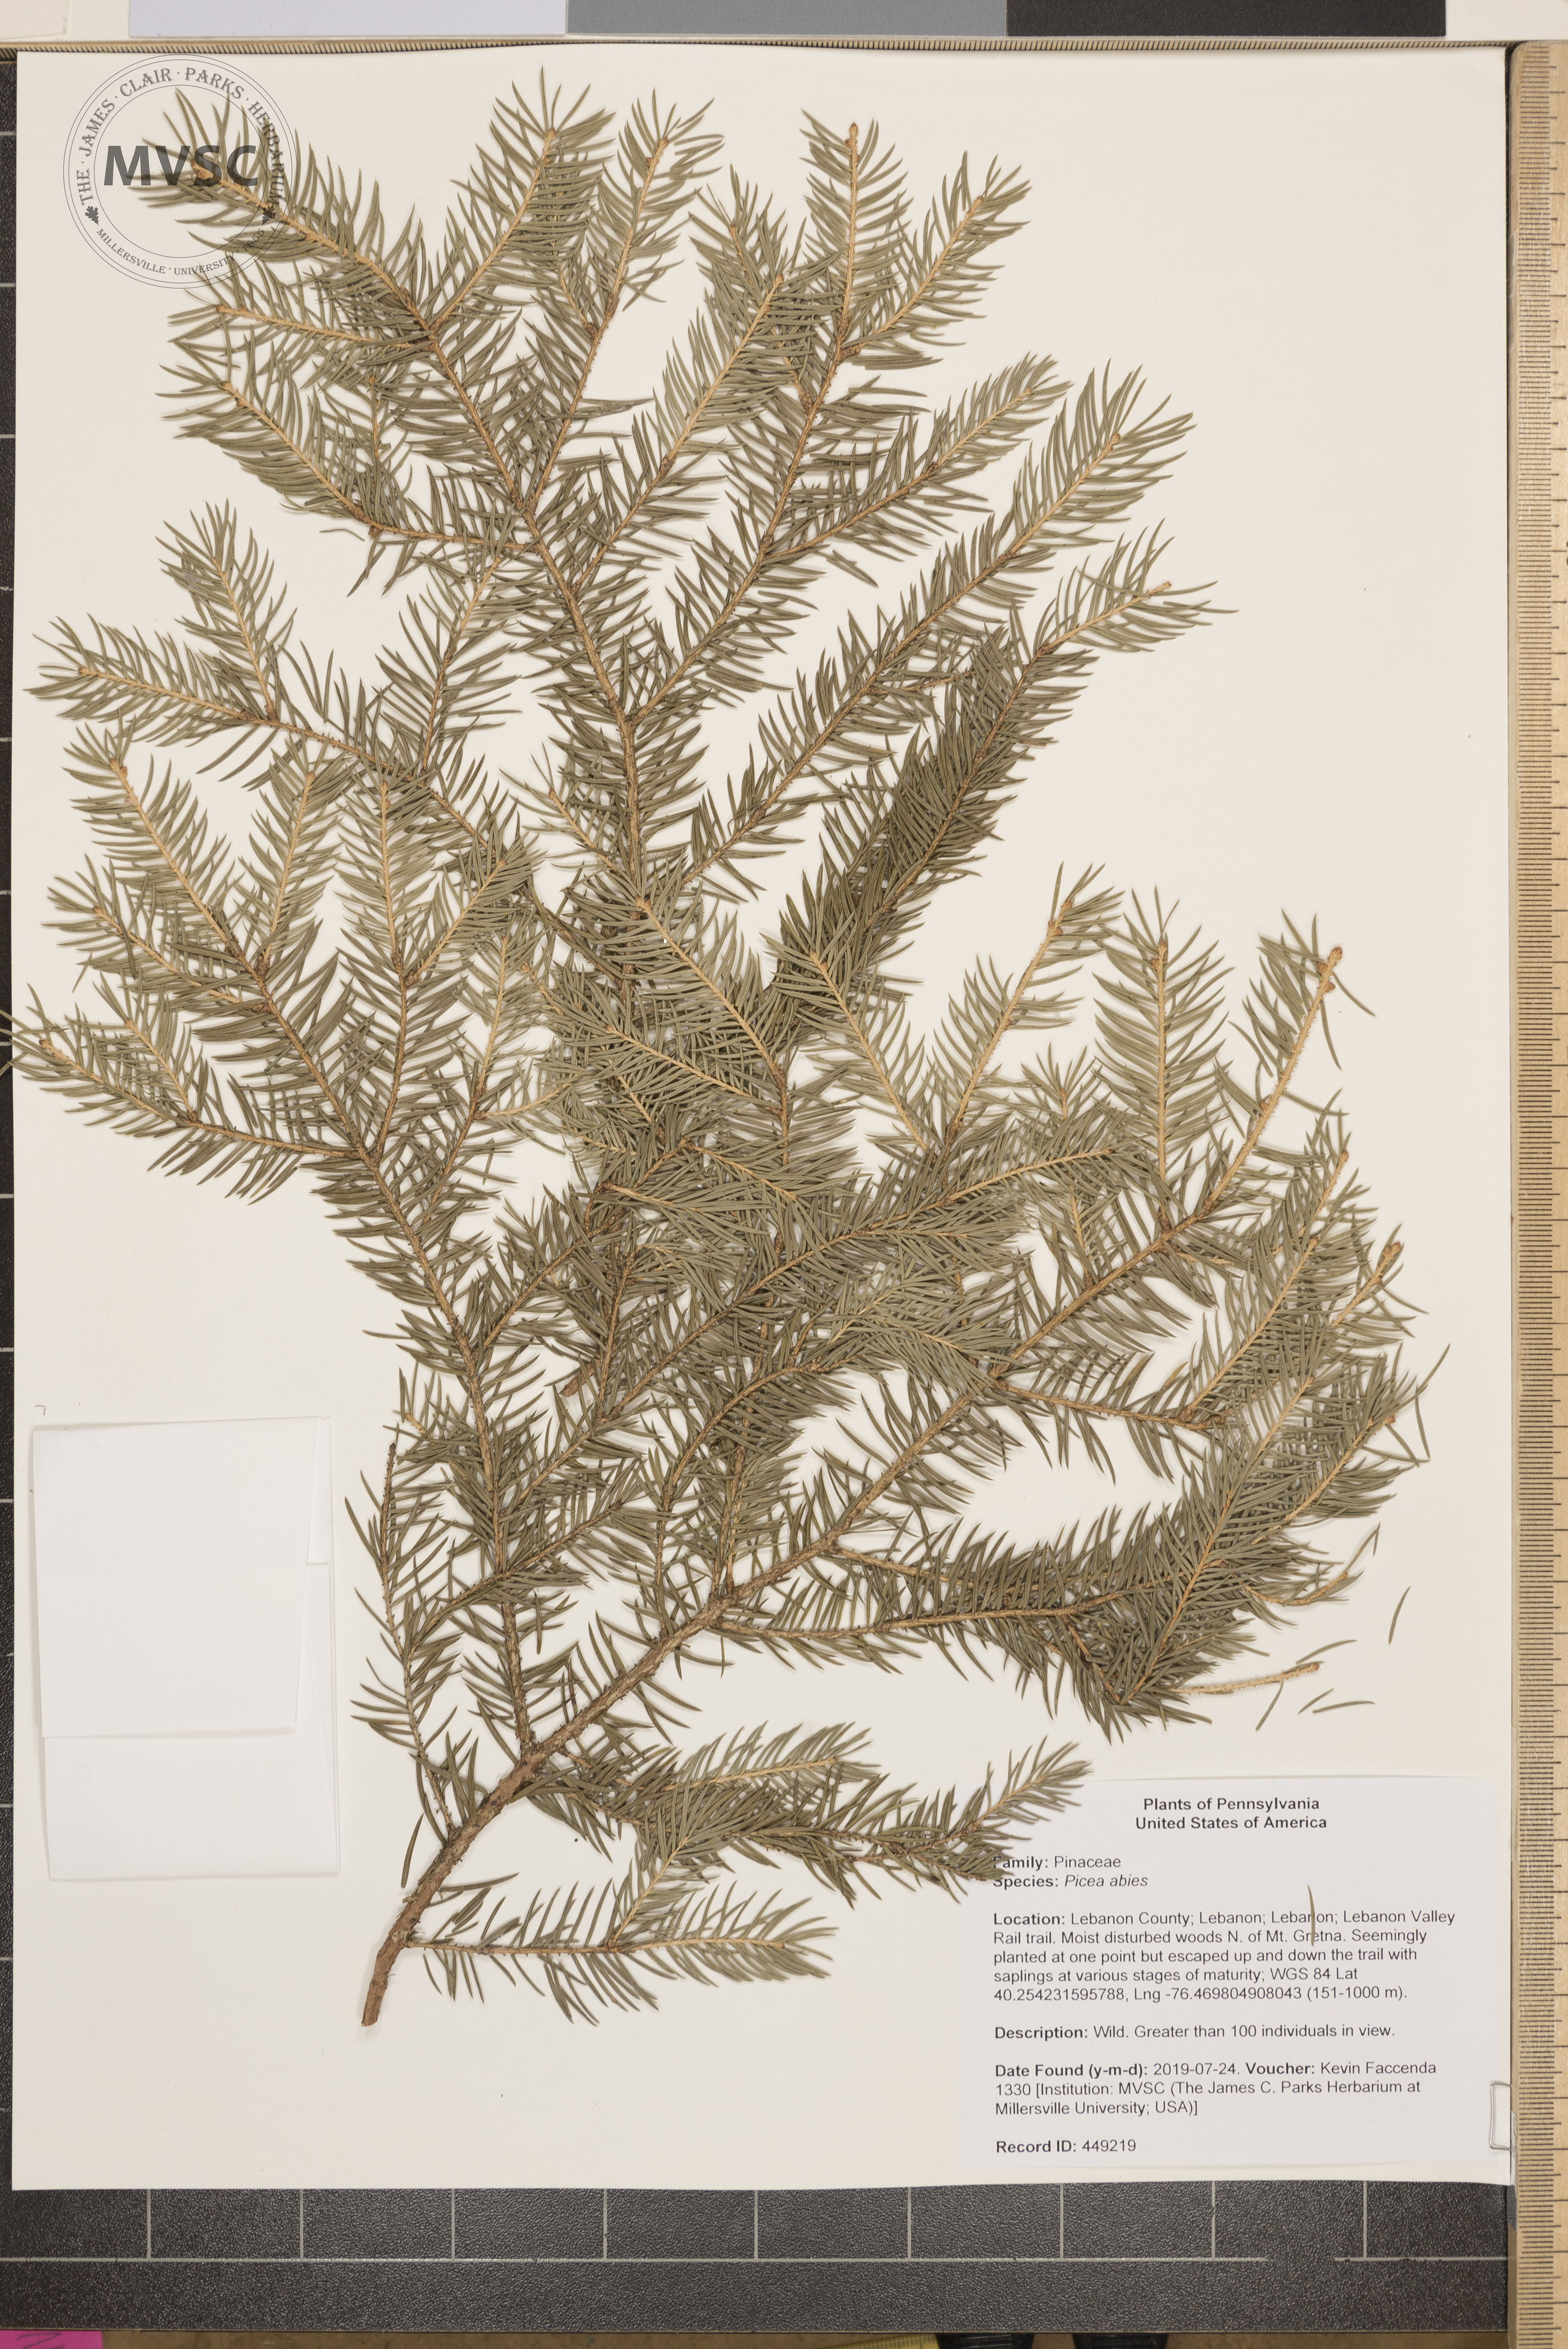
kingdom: Plantae
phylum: Tracheophyta
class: Pinopsida
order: Pinales
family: Pinaceae
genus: Picea
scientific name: Picea abies
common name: Norway spruce
